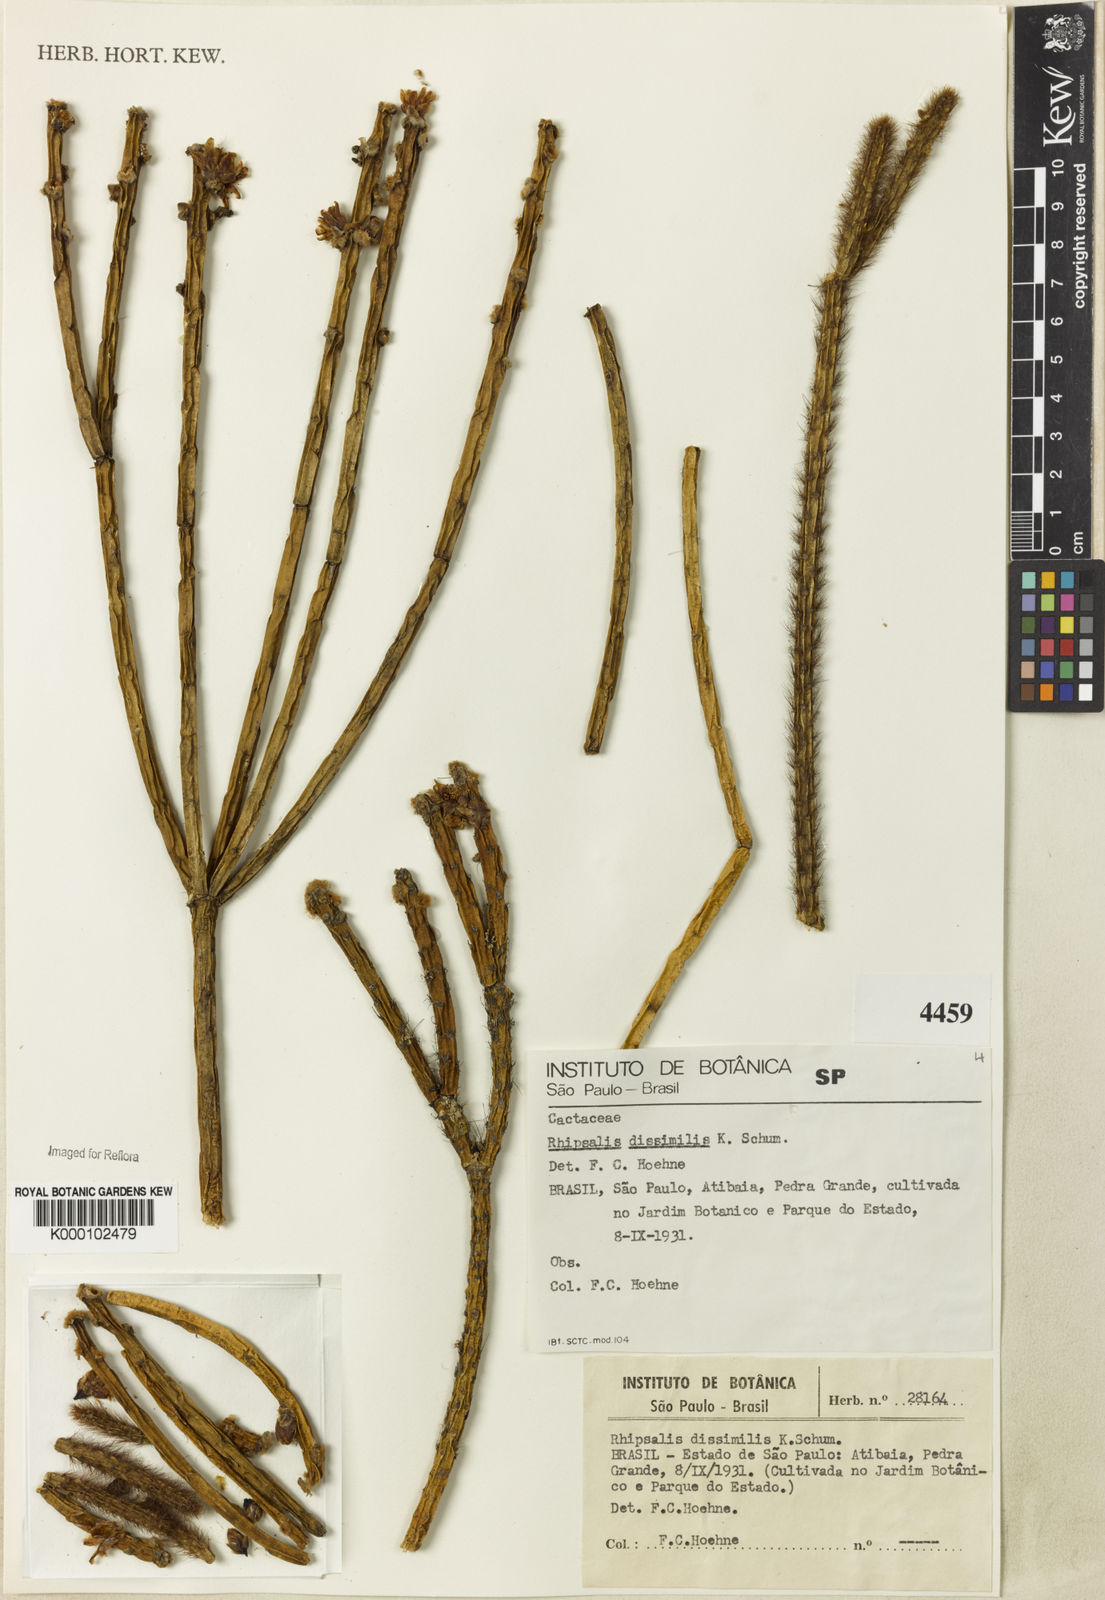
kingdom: Plantae
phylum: Tracheophyta
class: Magnoliopsida
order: Caryophyllales
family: Cactaceae
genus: Rhipsalis
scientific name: Rhipsalis dissimilis
